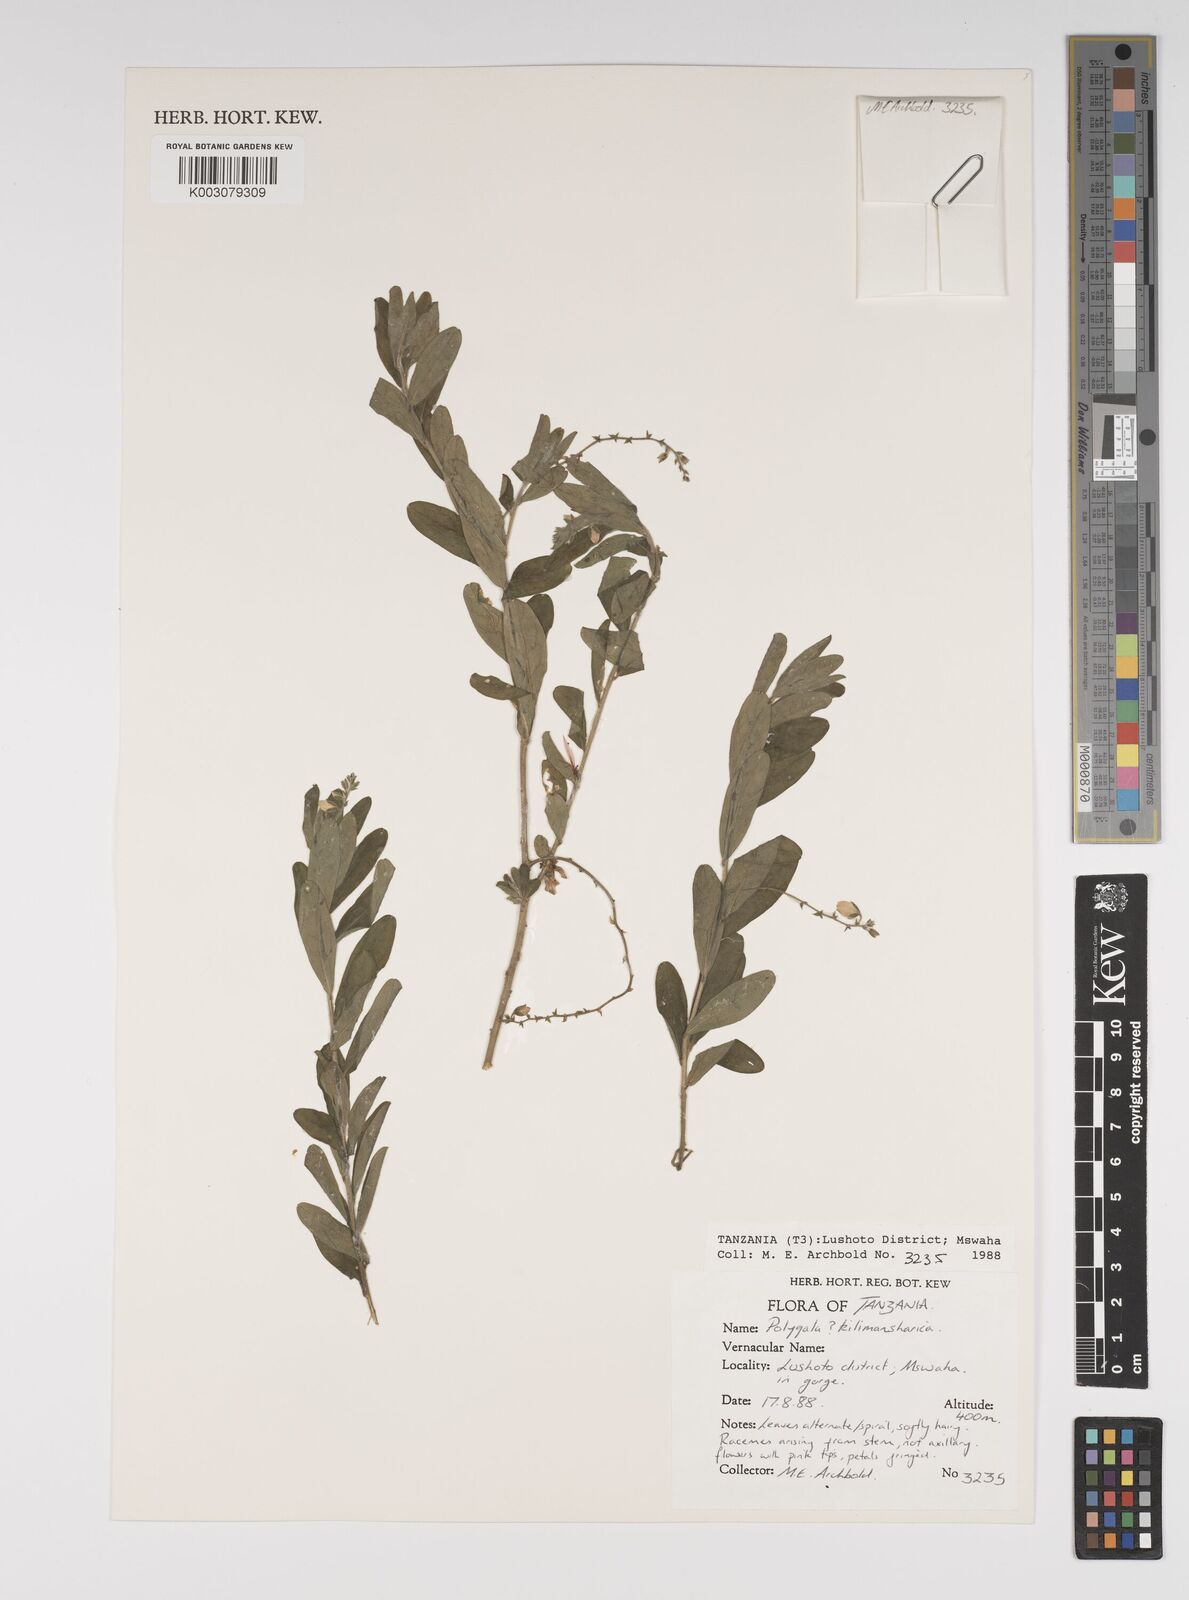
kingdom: Plantae
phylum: Tracheophyta
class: Magnoliopsida
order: Fabales
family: Polygalaceae
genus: Polygala
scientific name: Polygala kilimandjarica
